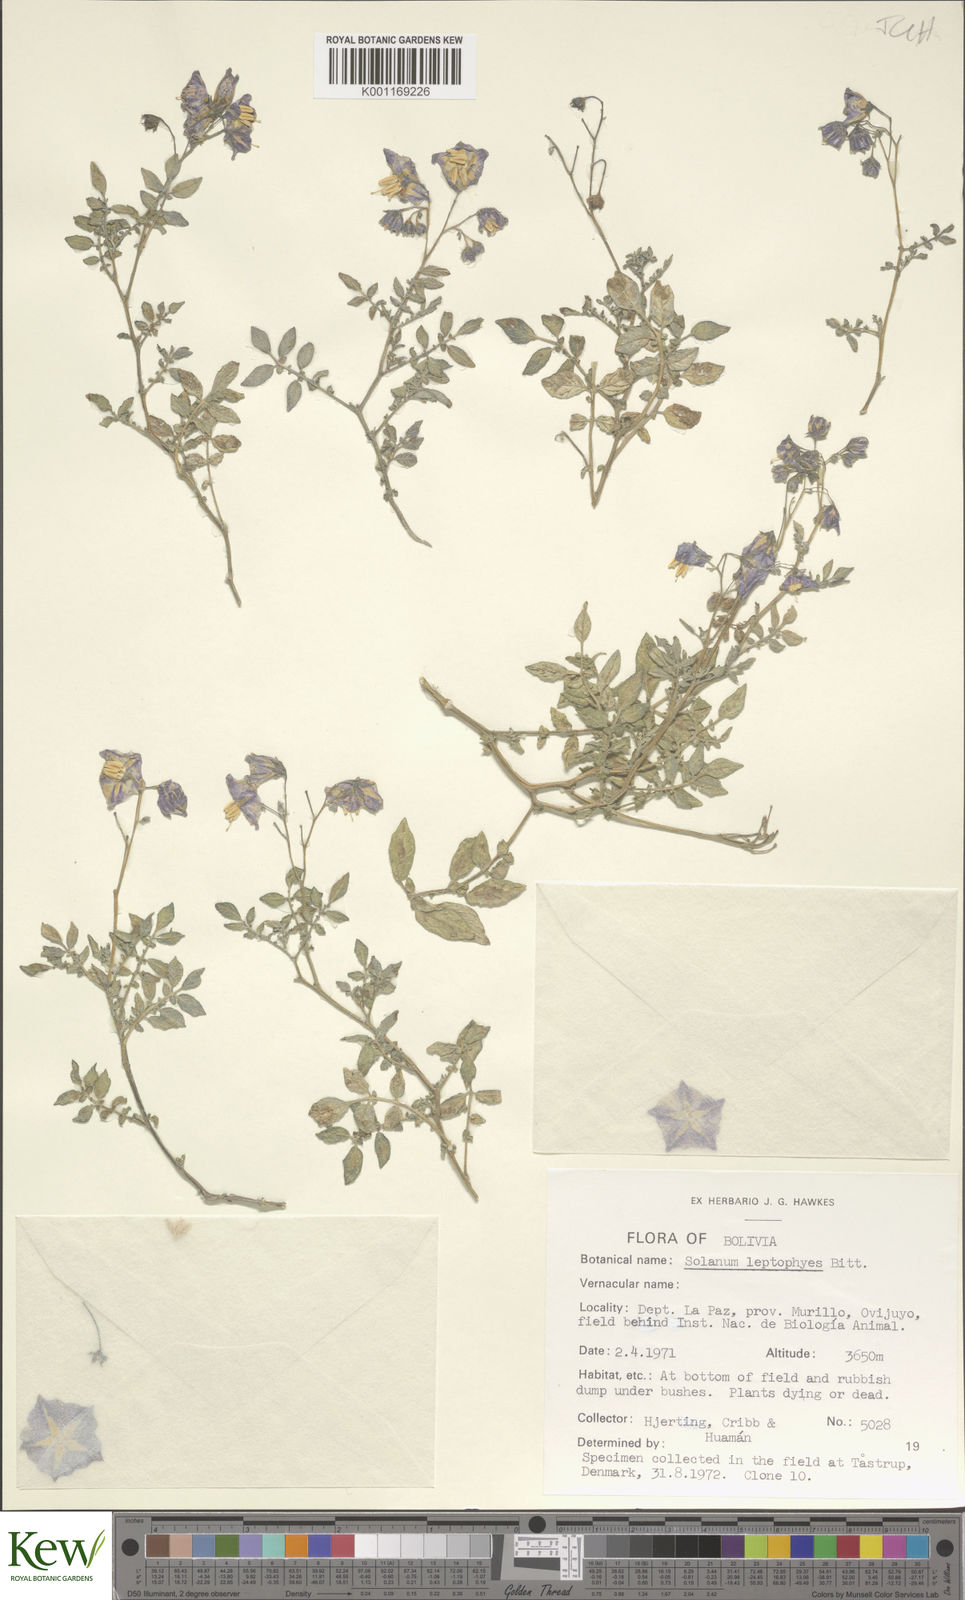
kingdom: Plantae
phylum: Tracheophyta
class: Magnoliopsida
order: Solanales
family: Solanaceae
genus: Solanum
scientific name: Solanum brevicaule
